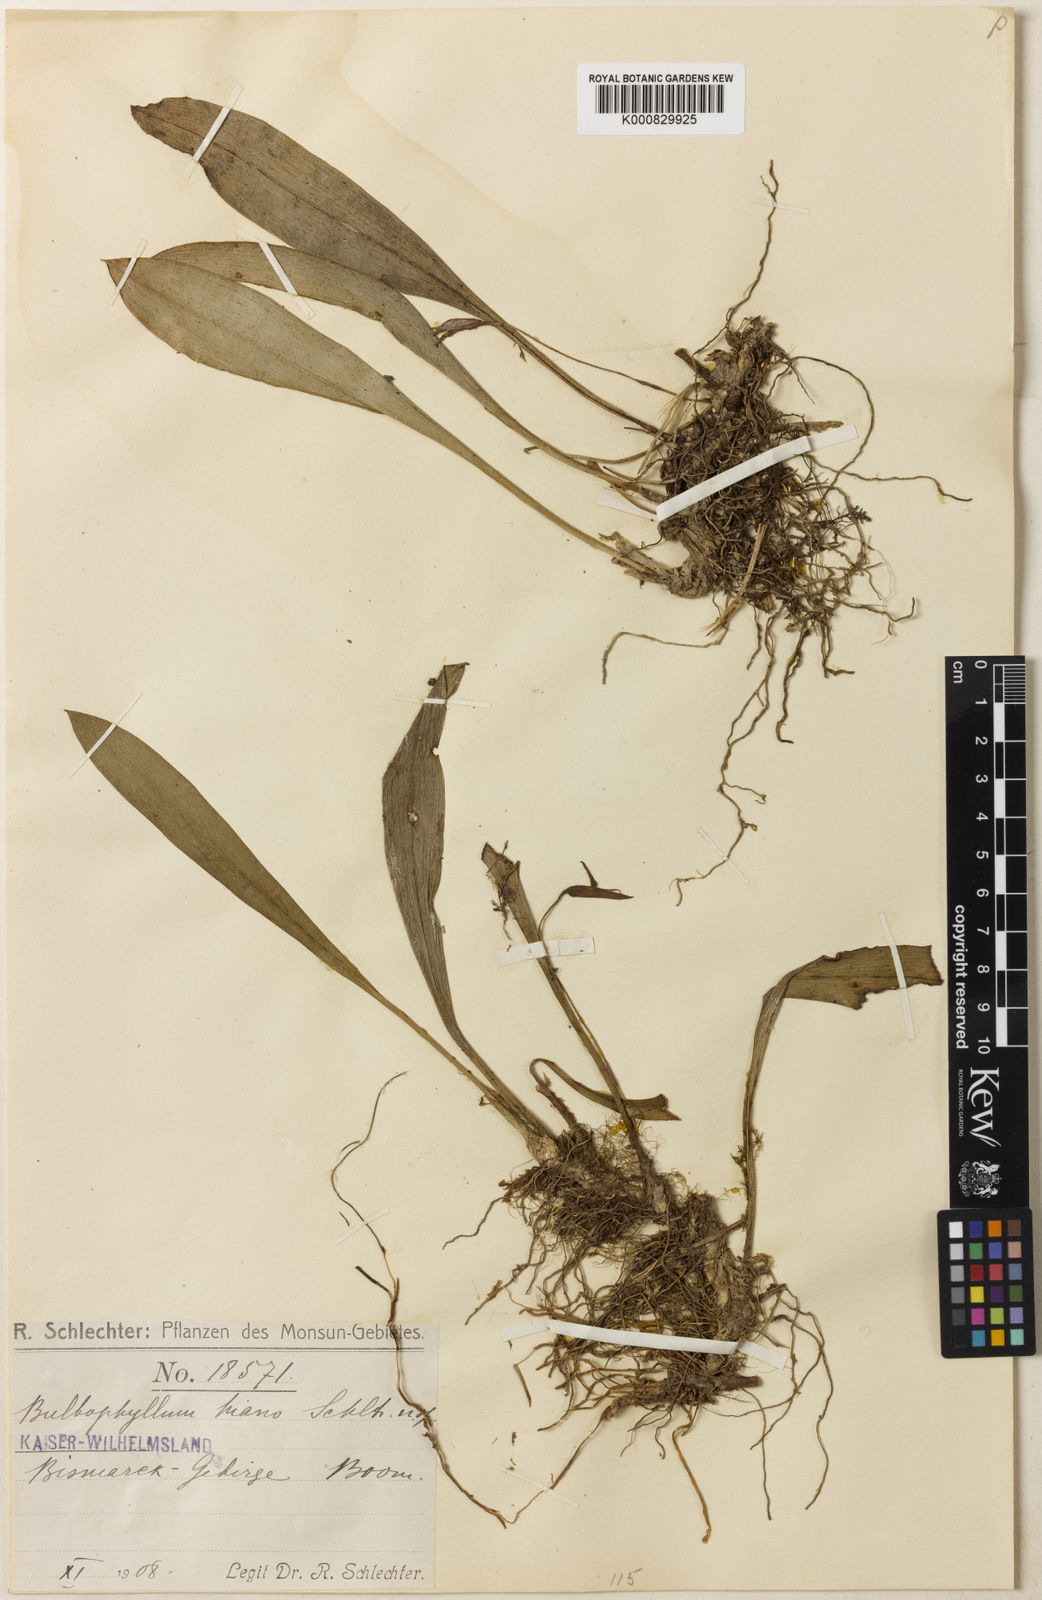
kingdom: Plantae
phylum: Tracheophyta
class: Liliopsida
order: Asparagales
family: Orchidaceae
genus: Bulbophyllum
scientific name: Bulbophyllum hians
